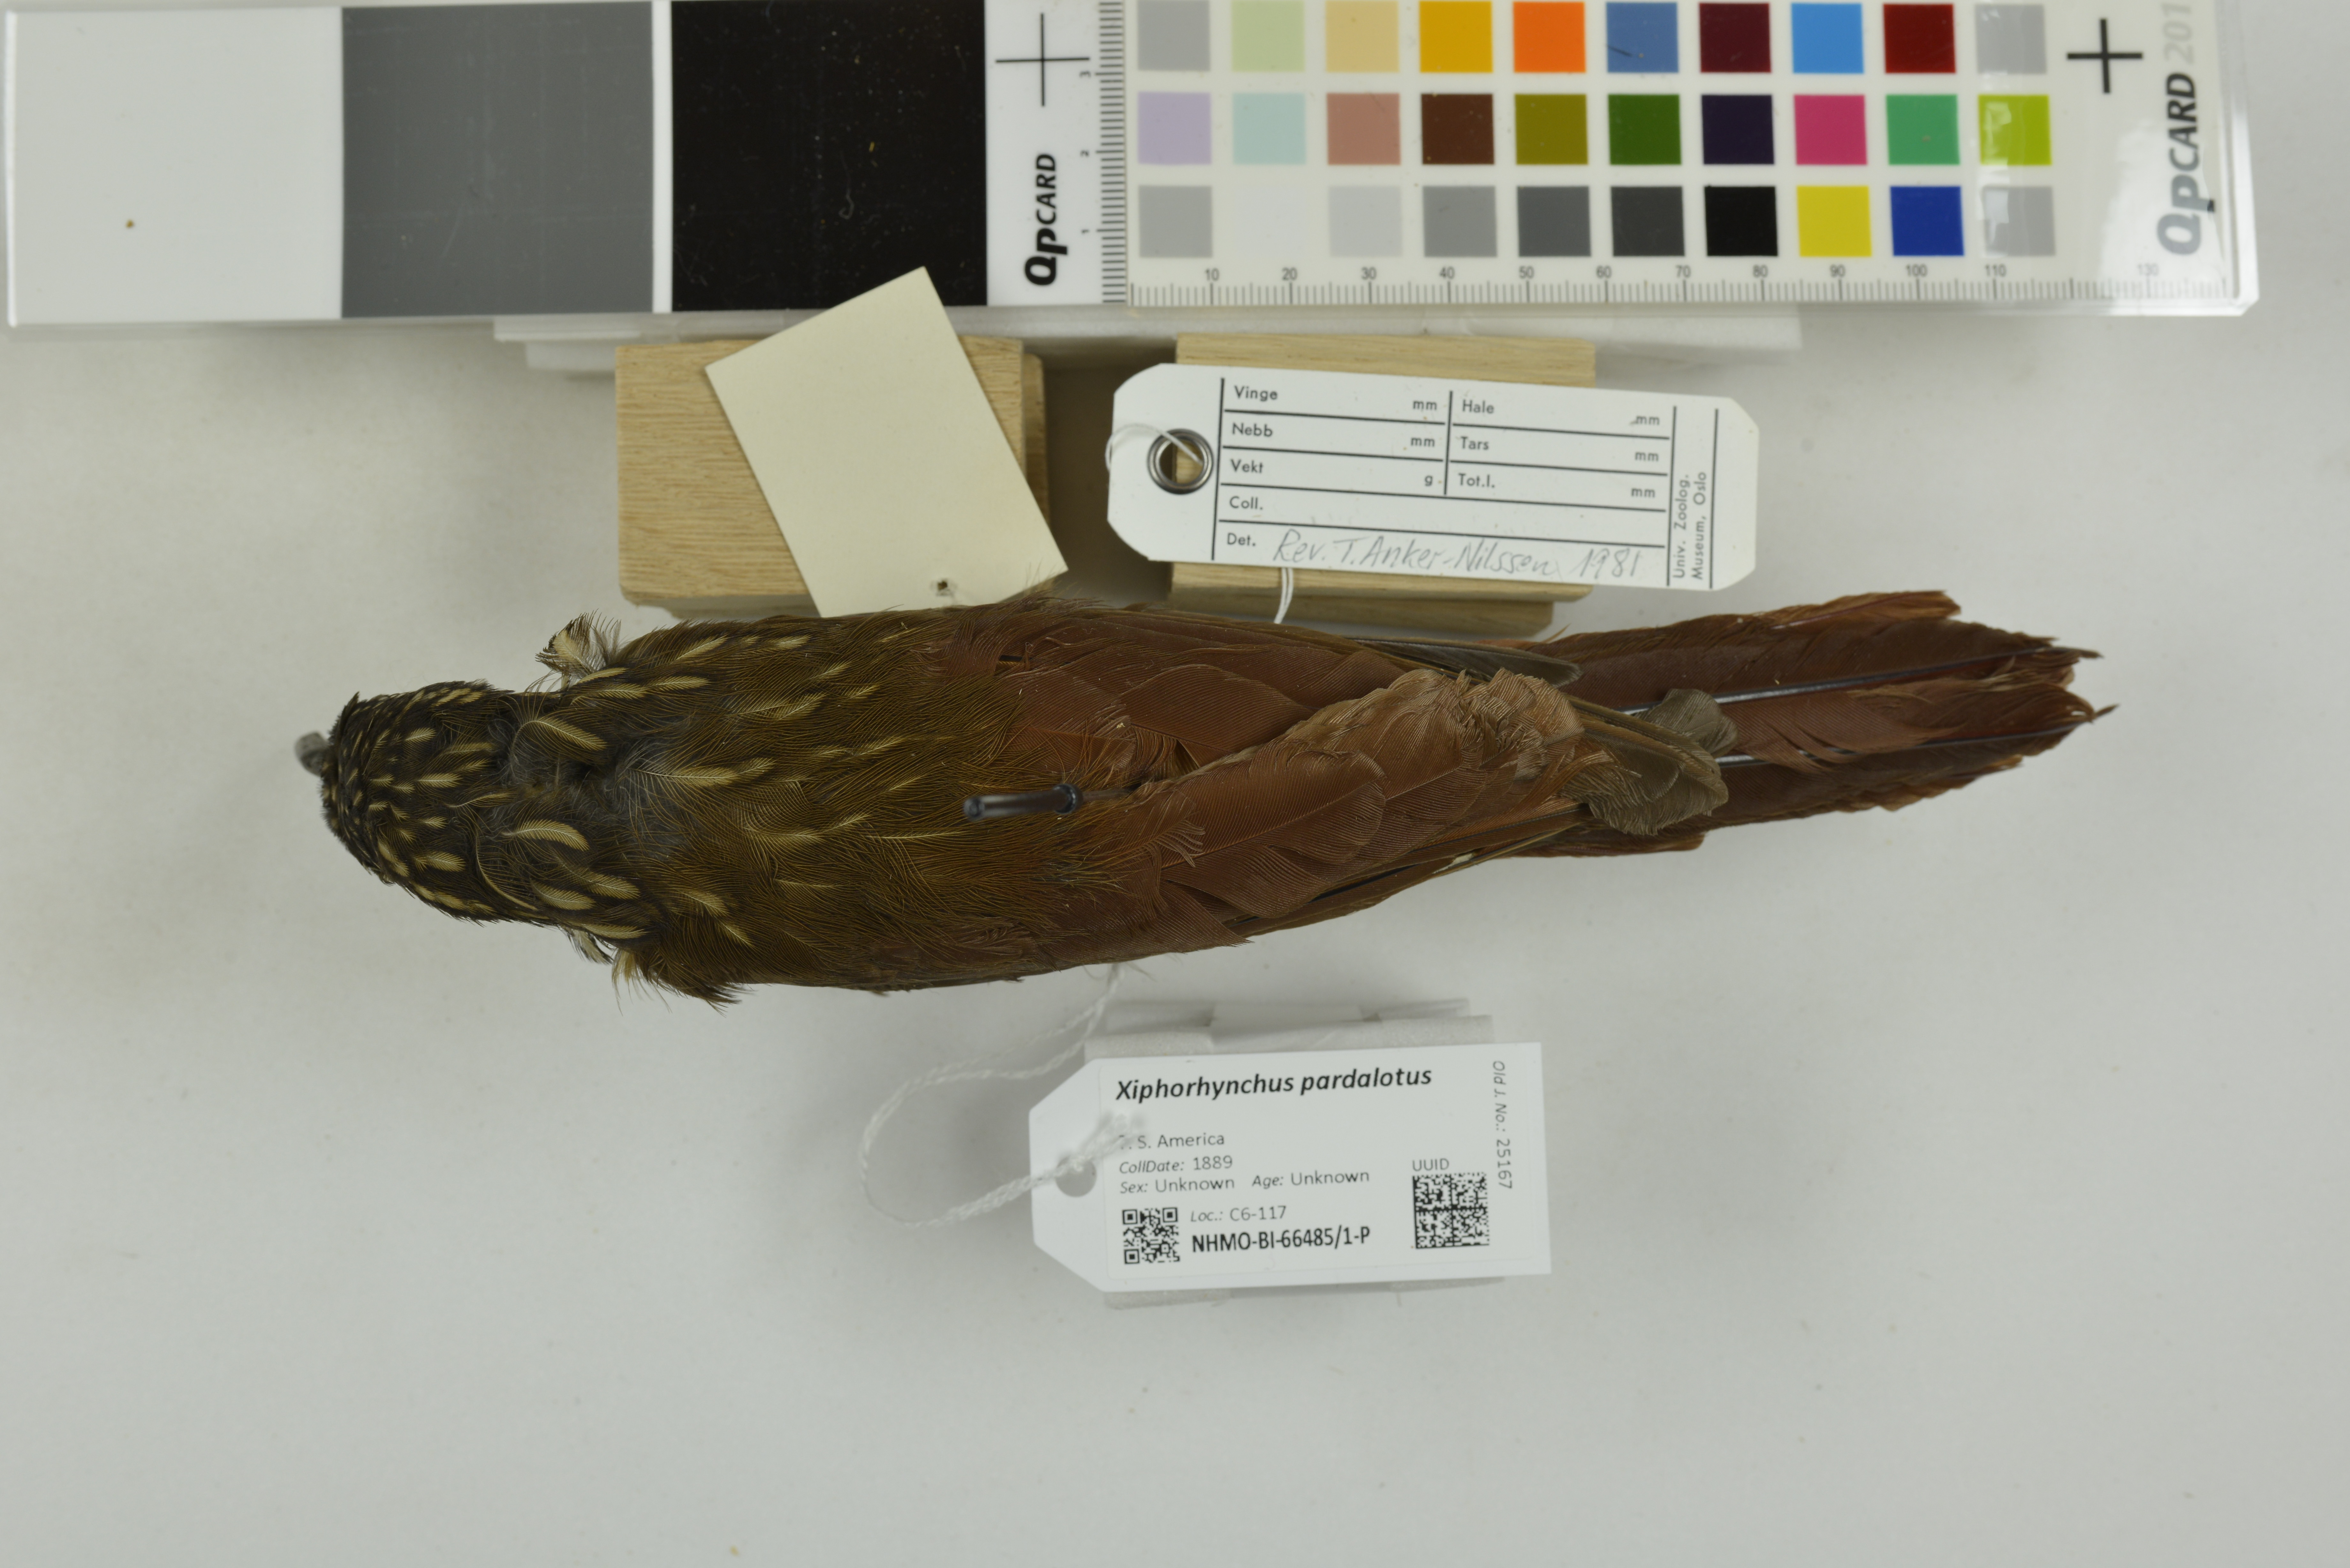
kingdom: Animalia
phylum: Chordata
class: Aves
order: Passeriformes
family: Furnariidae
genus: Xiphorhynchus
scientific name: Xiphorhynchus pardalotus
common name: Chestnut-rumped woodcreeper
